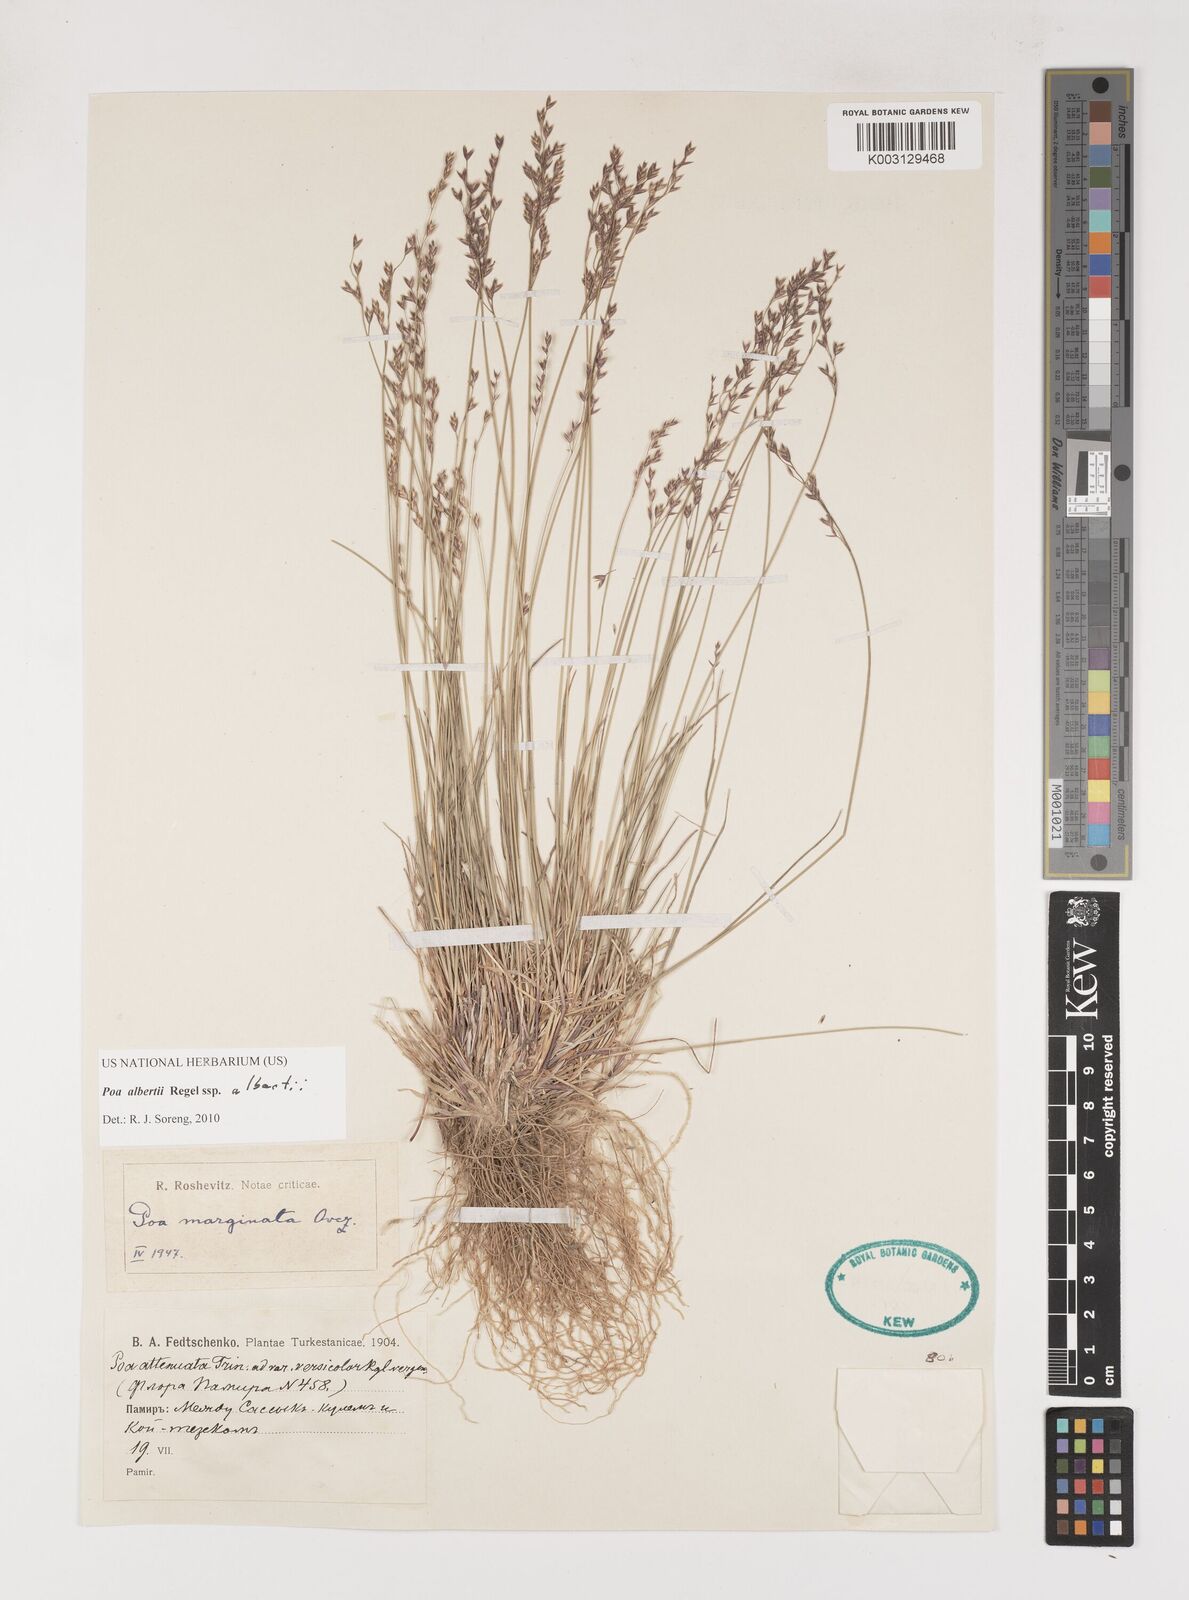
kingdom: Plantae
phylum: Tracheophyta
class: Liliopsida
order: Poales
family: Poaceae
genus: Poa
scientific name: Poa alberti
